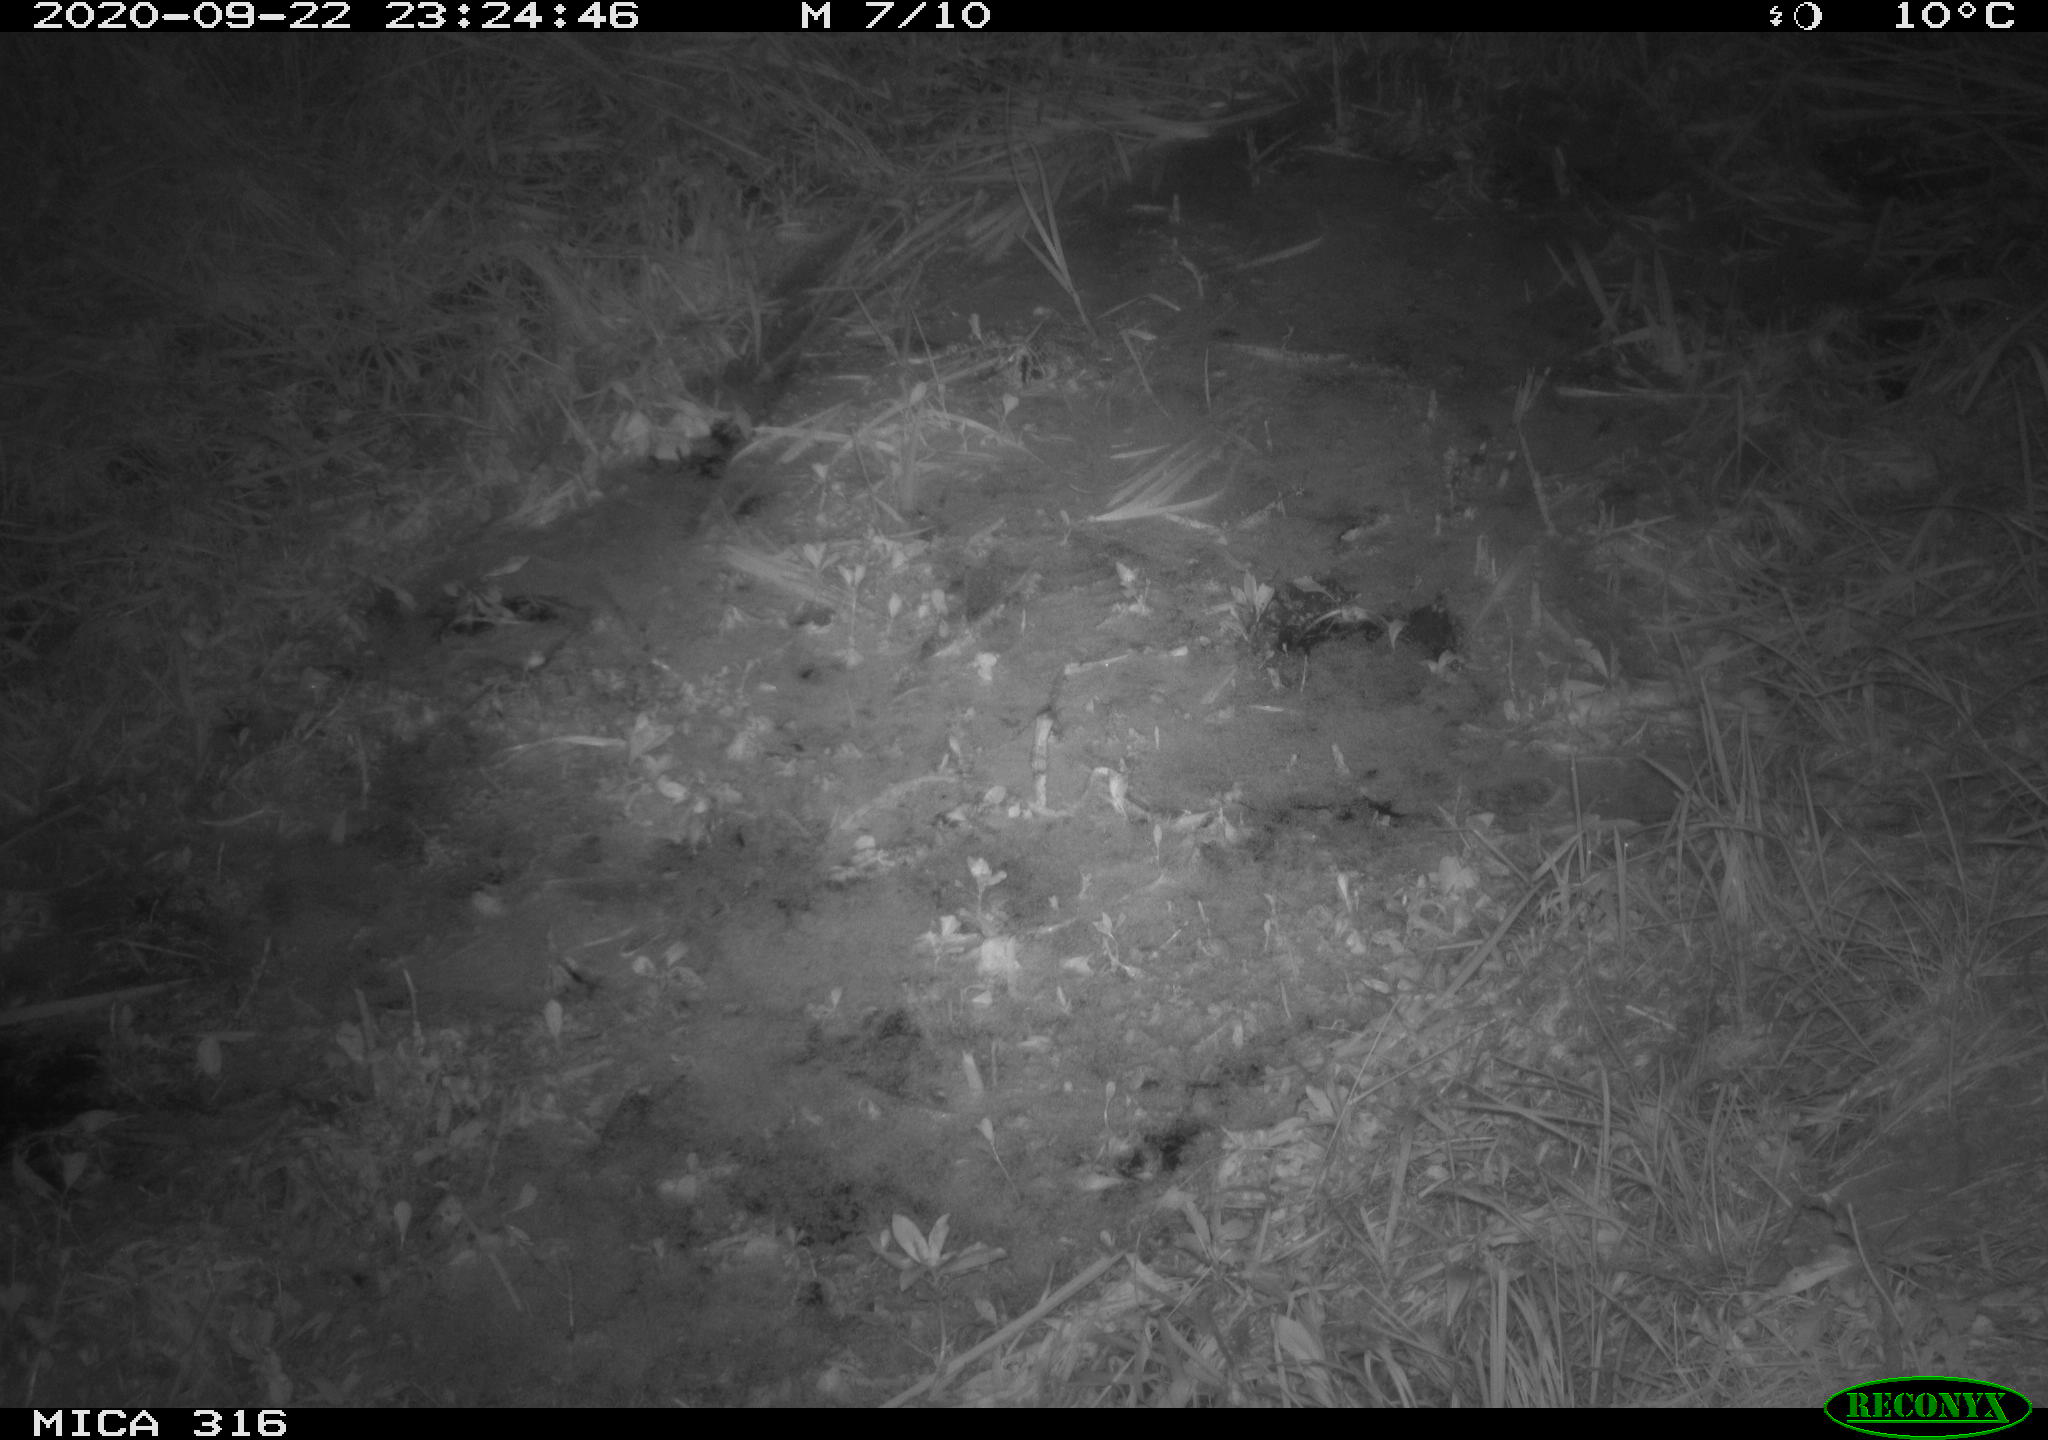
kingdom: Animalia
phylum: Chordata
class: Mammalia
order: Rodentia
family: Muridae
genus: Rattus
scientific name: Rattus norvegicus
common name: Brown rat
